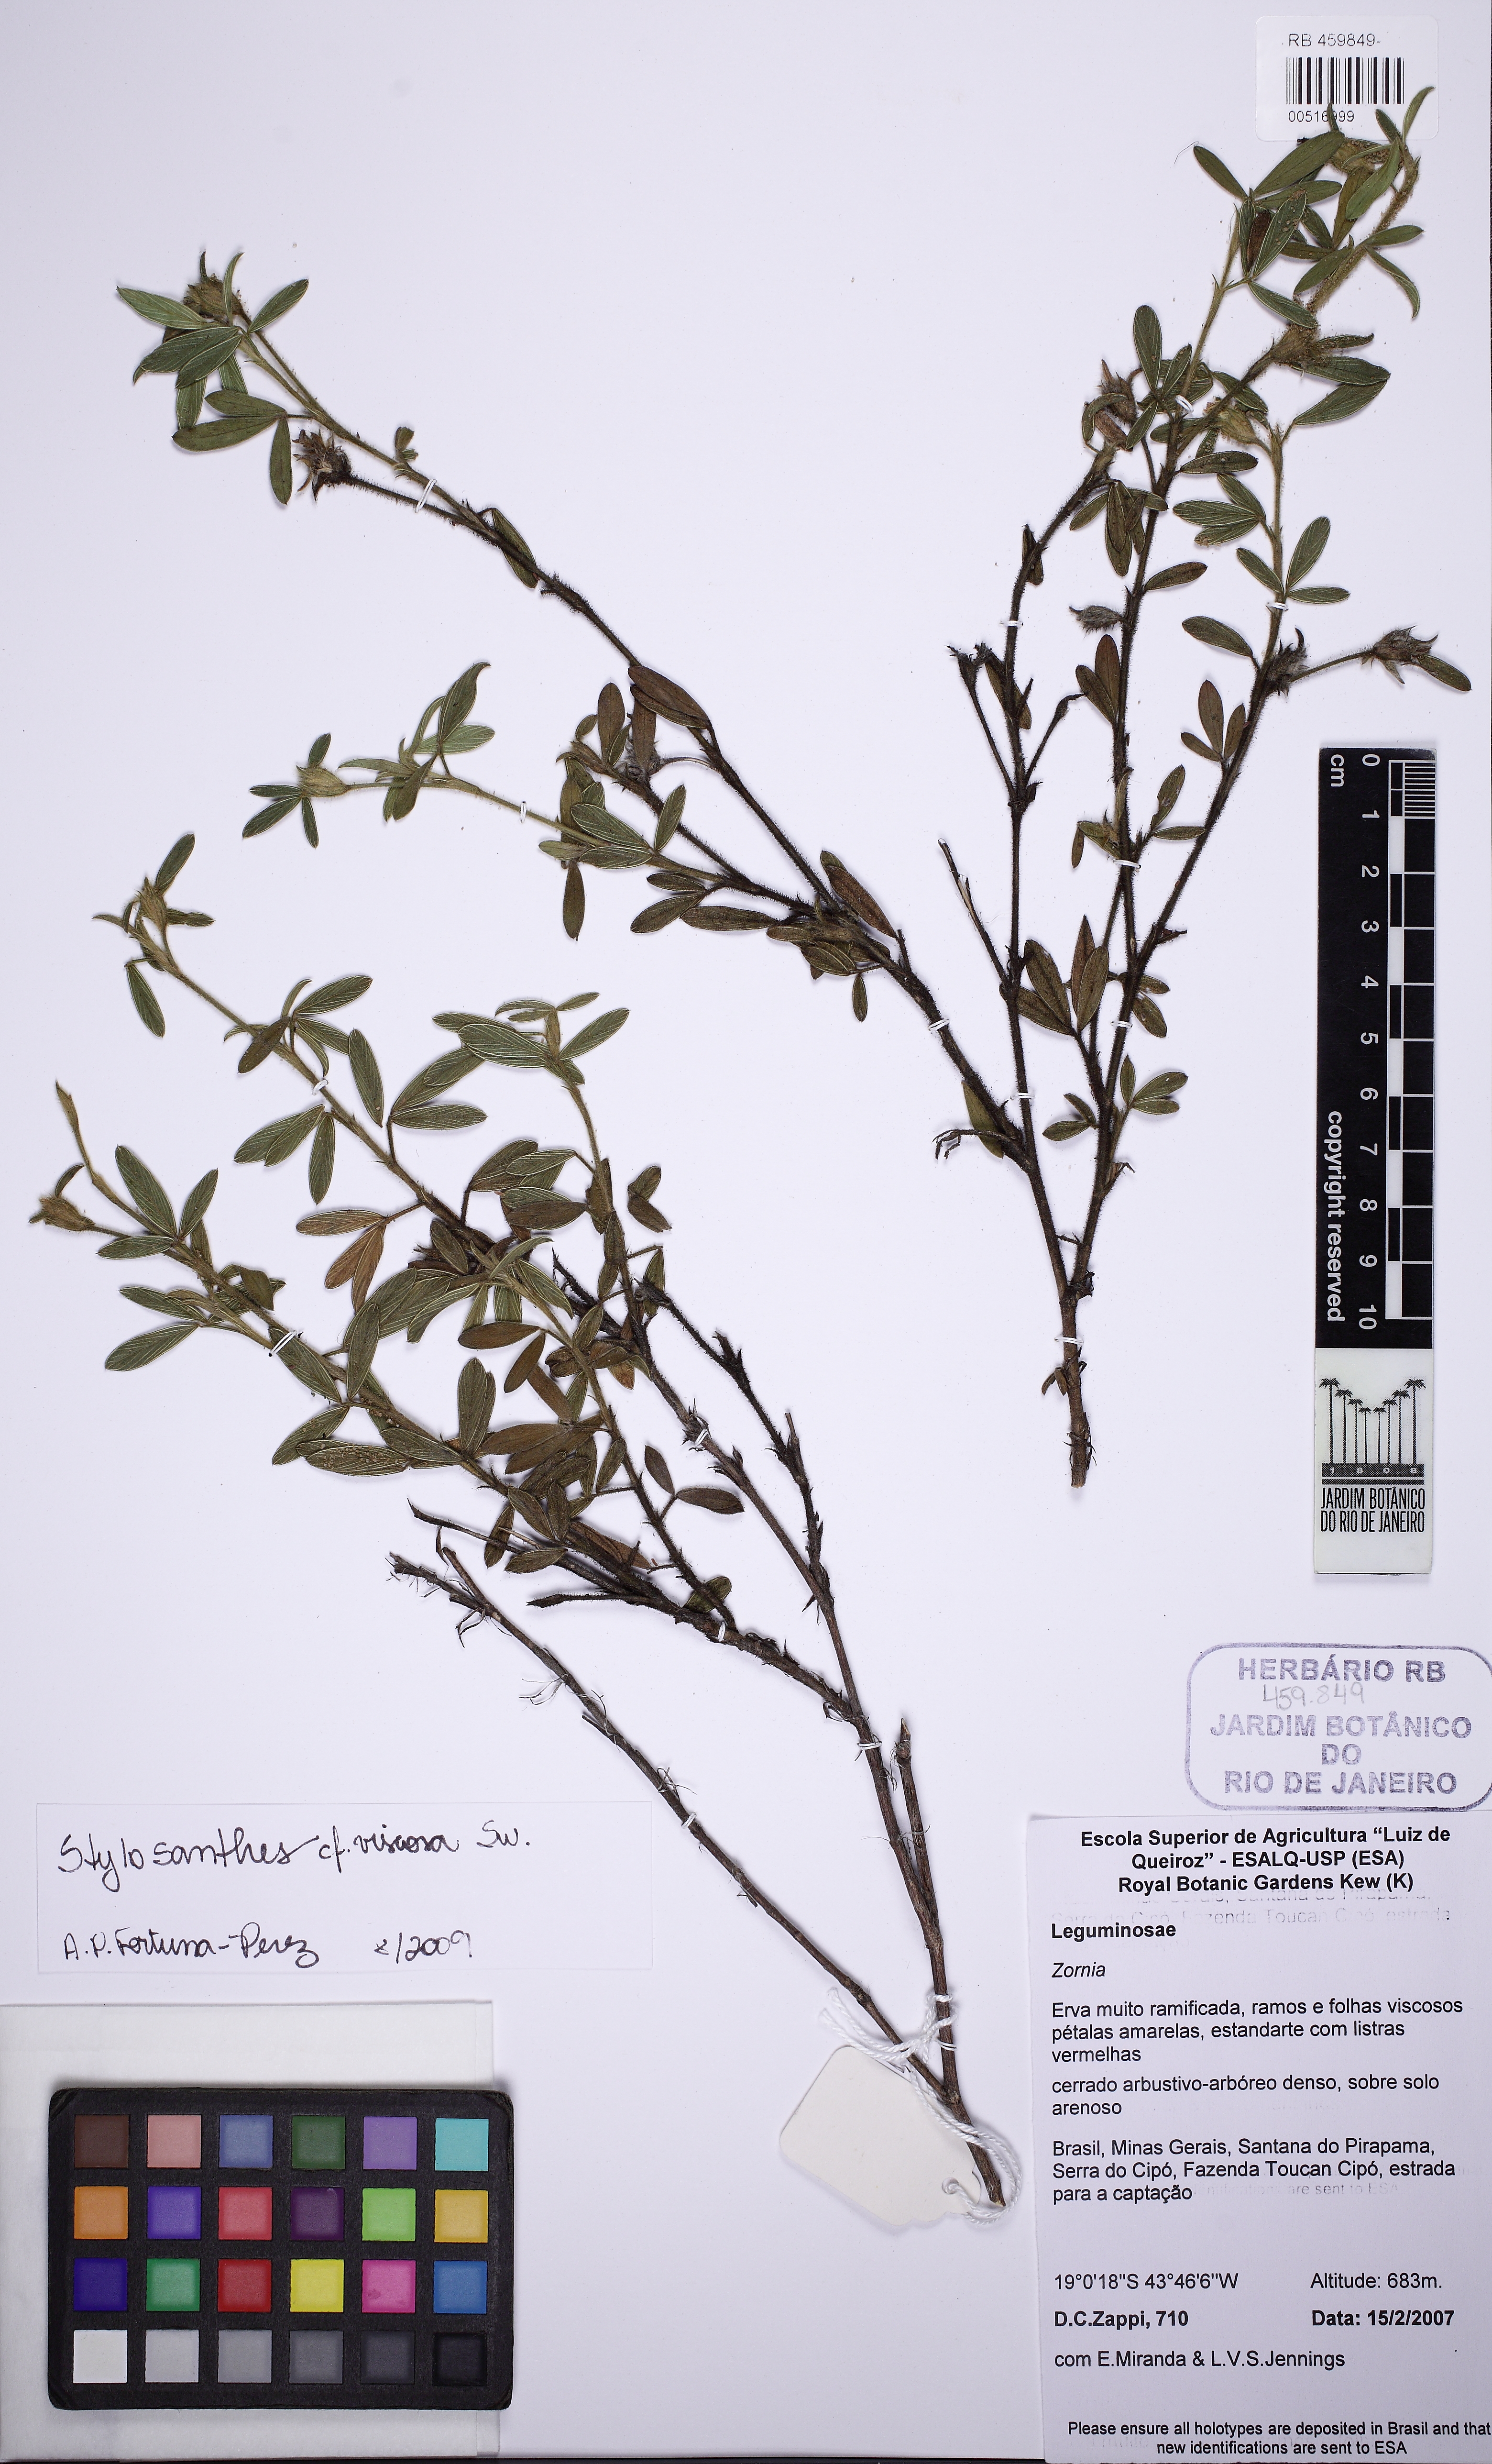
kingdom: Plantae
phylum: Tracheophyta
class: Magnoliopsida
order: Fabales
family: Fabaceae
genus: Stylosanthes
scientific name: Stylosanthes viscosa
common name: Viscid pencil-flower
